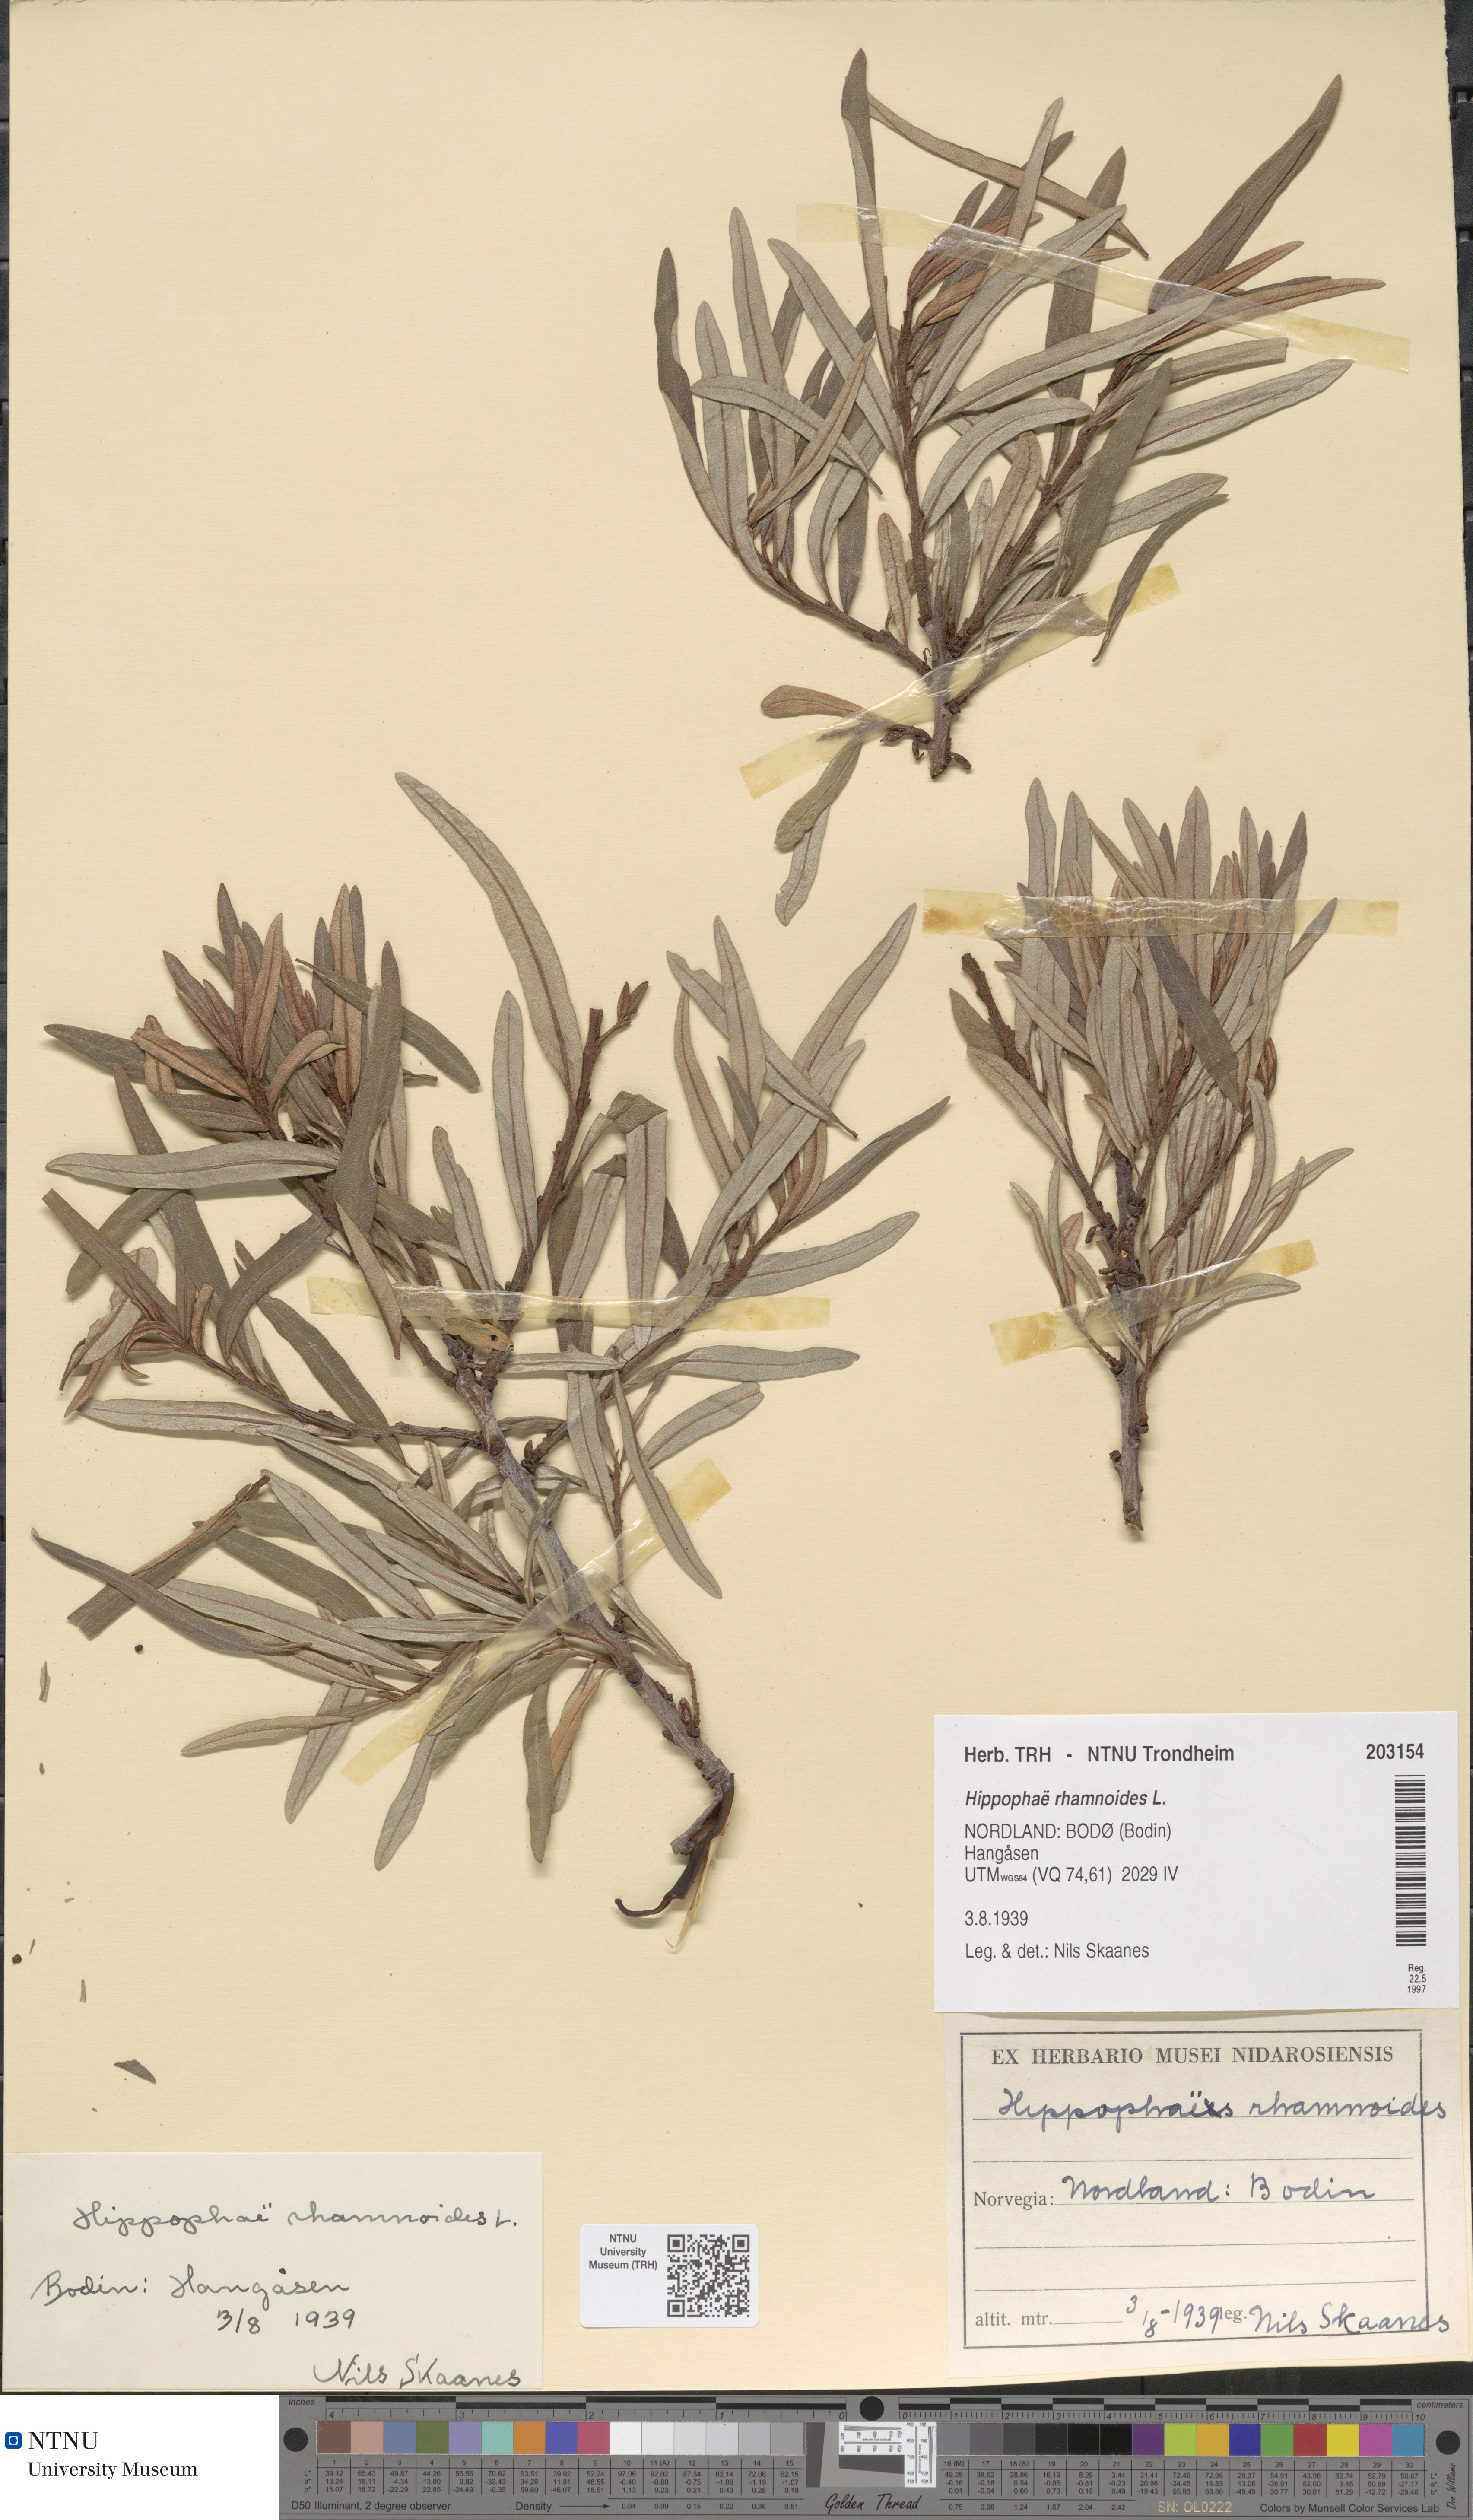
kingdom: Plantae
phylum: Tracheophyta
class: Magnoliopsida
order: Rosales
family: Elaeagnaceae
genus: Hippophae
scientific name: Hippophae rhamnoides
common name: Sea-buckthorn
